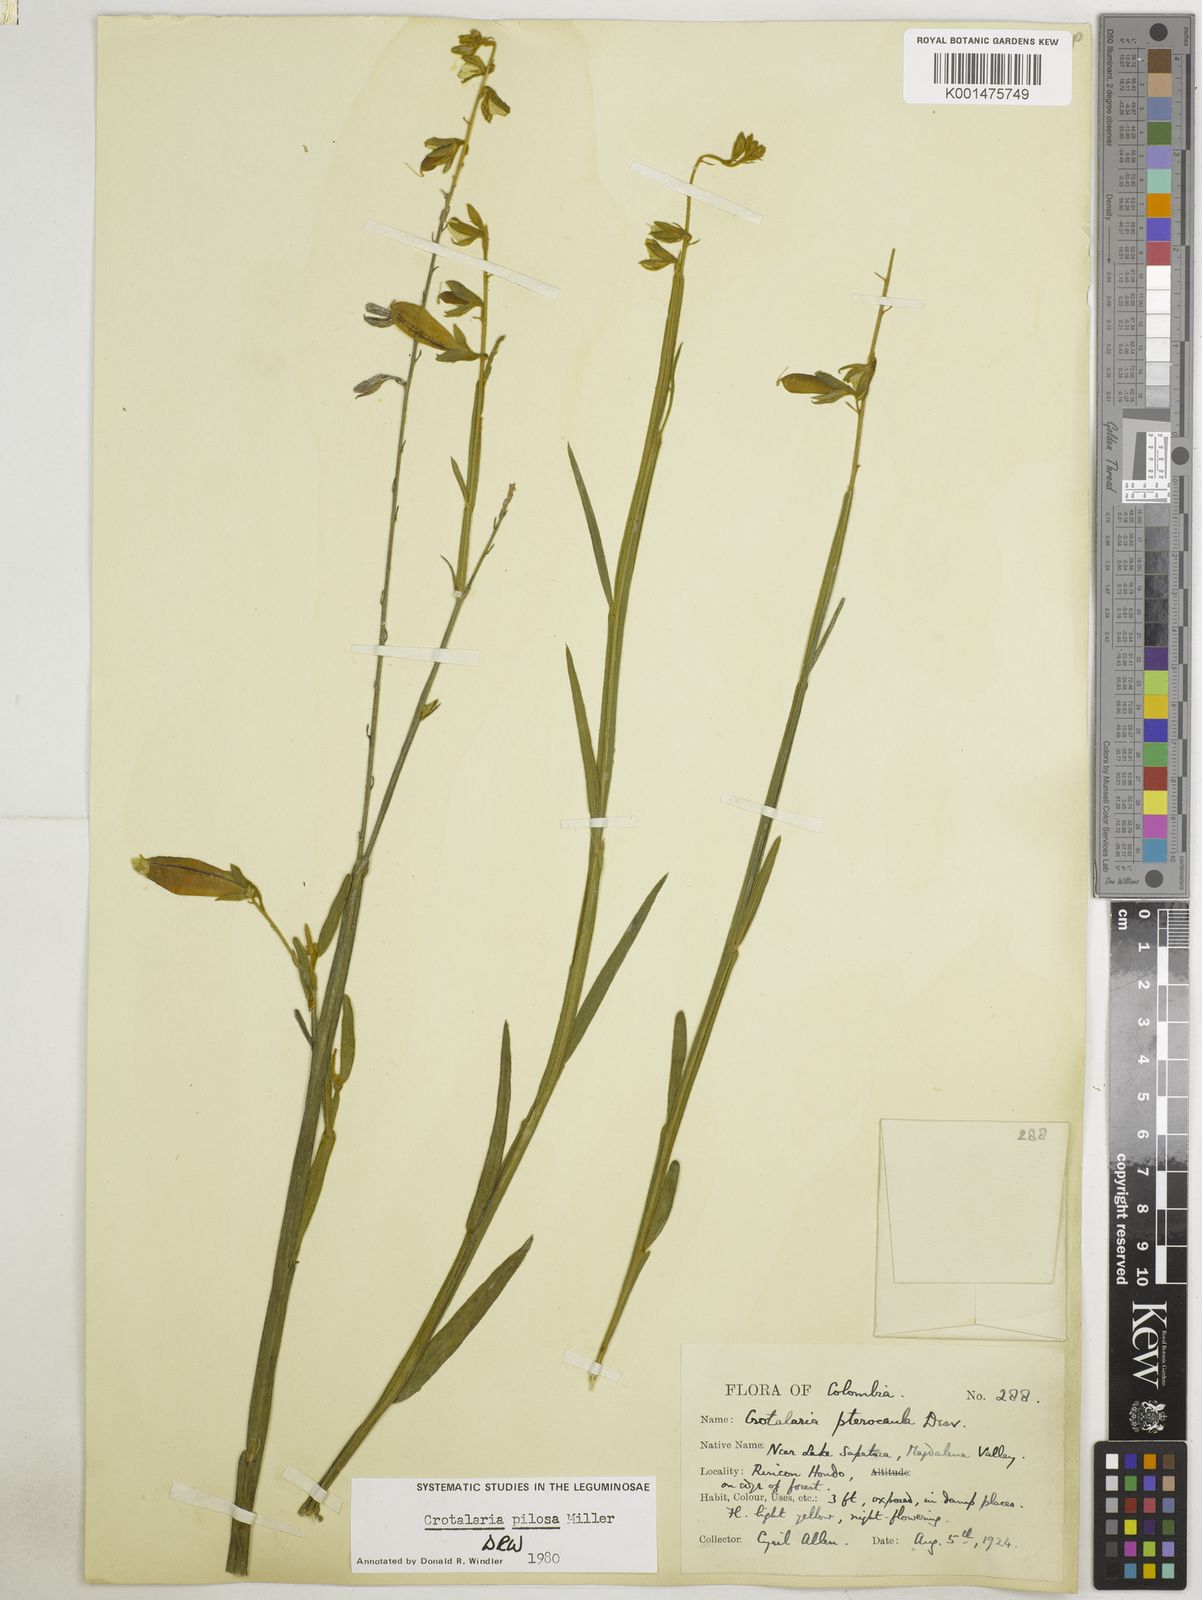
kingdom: Plantae
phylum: Tracheophyta
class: Magnoliopsida
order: Fabales
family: Fabaceae
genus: Crotalaria
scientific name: Crotalaria pilosa
